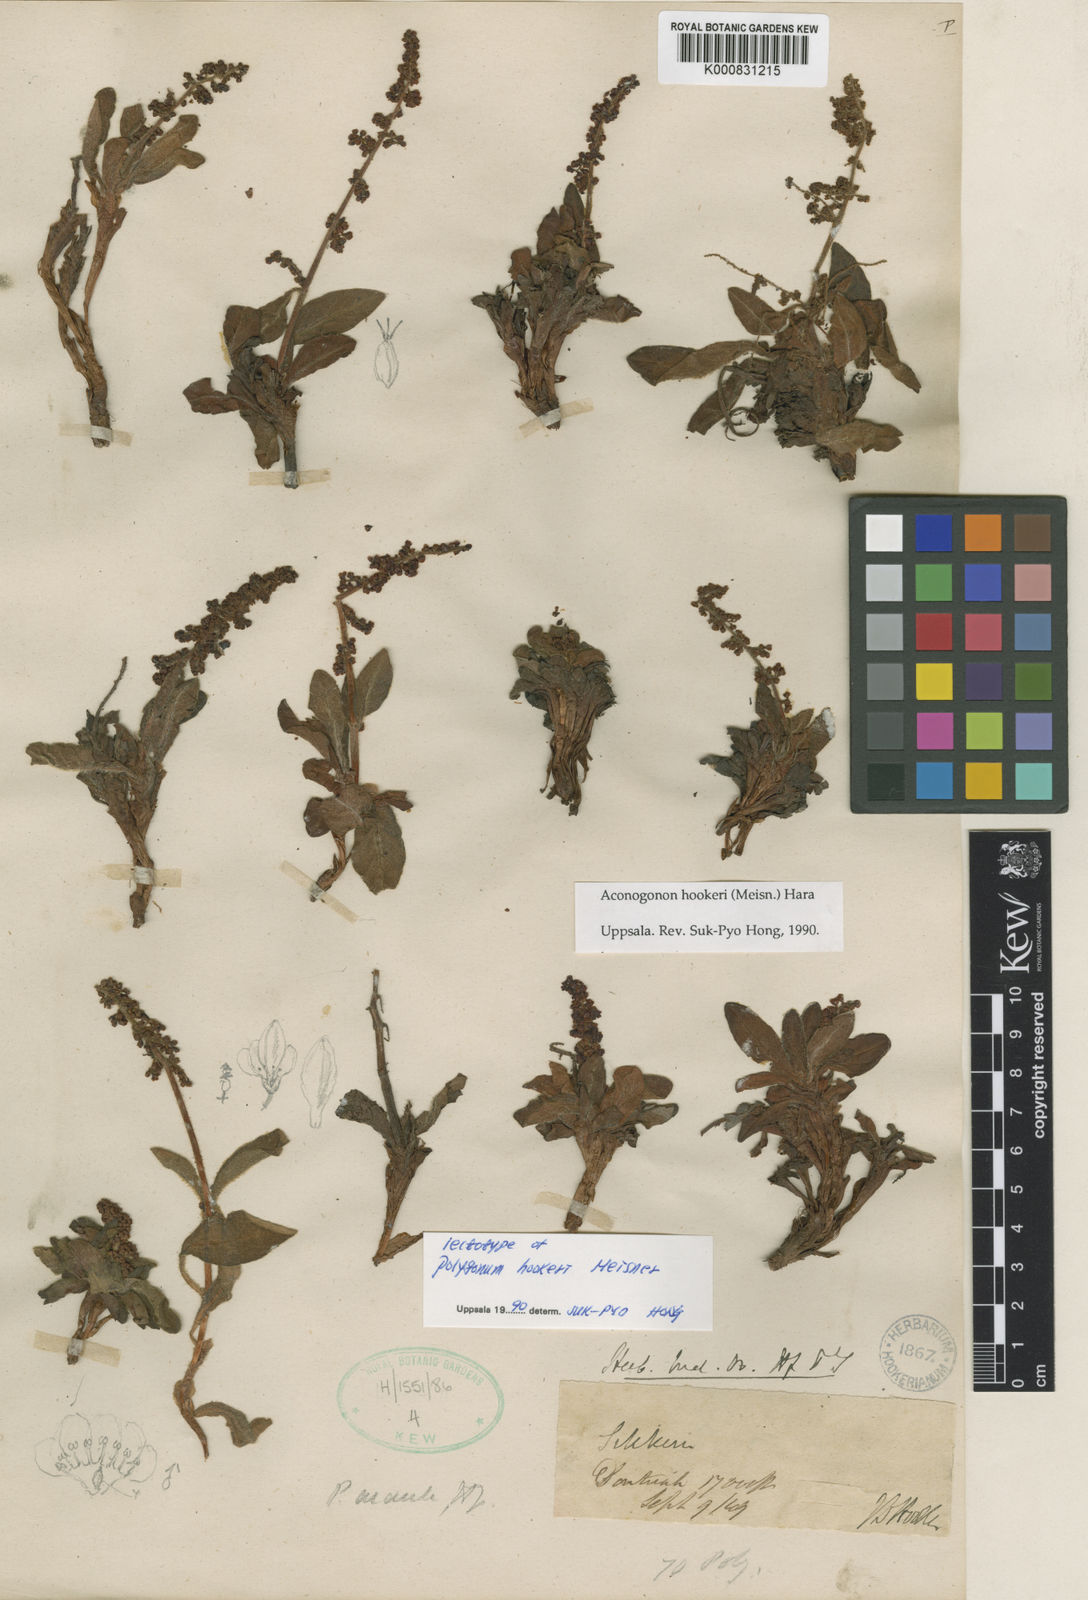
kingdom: Plantae
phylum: Tracheophyta
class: Magnoliopsida
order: Caryophyllales
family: Polygonaceae
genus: Koenigia
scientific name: Koenigia hookeri
